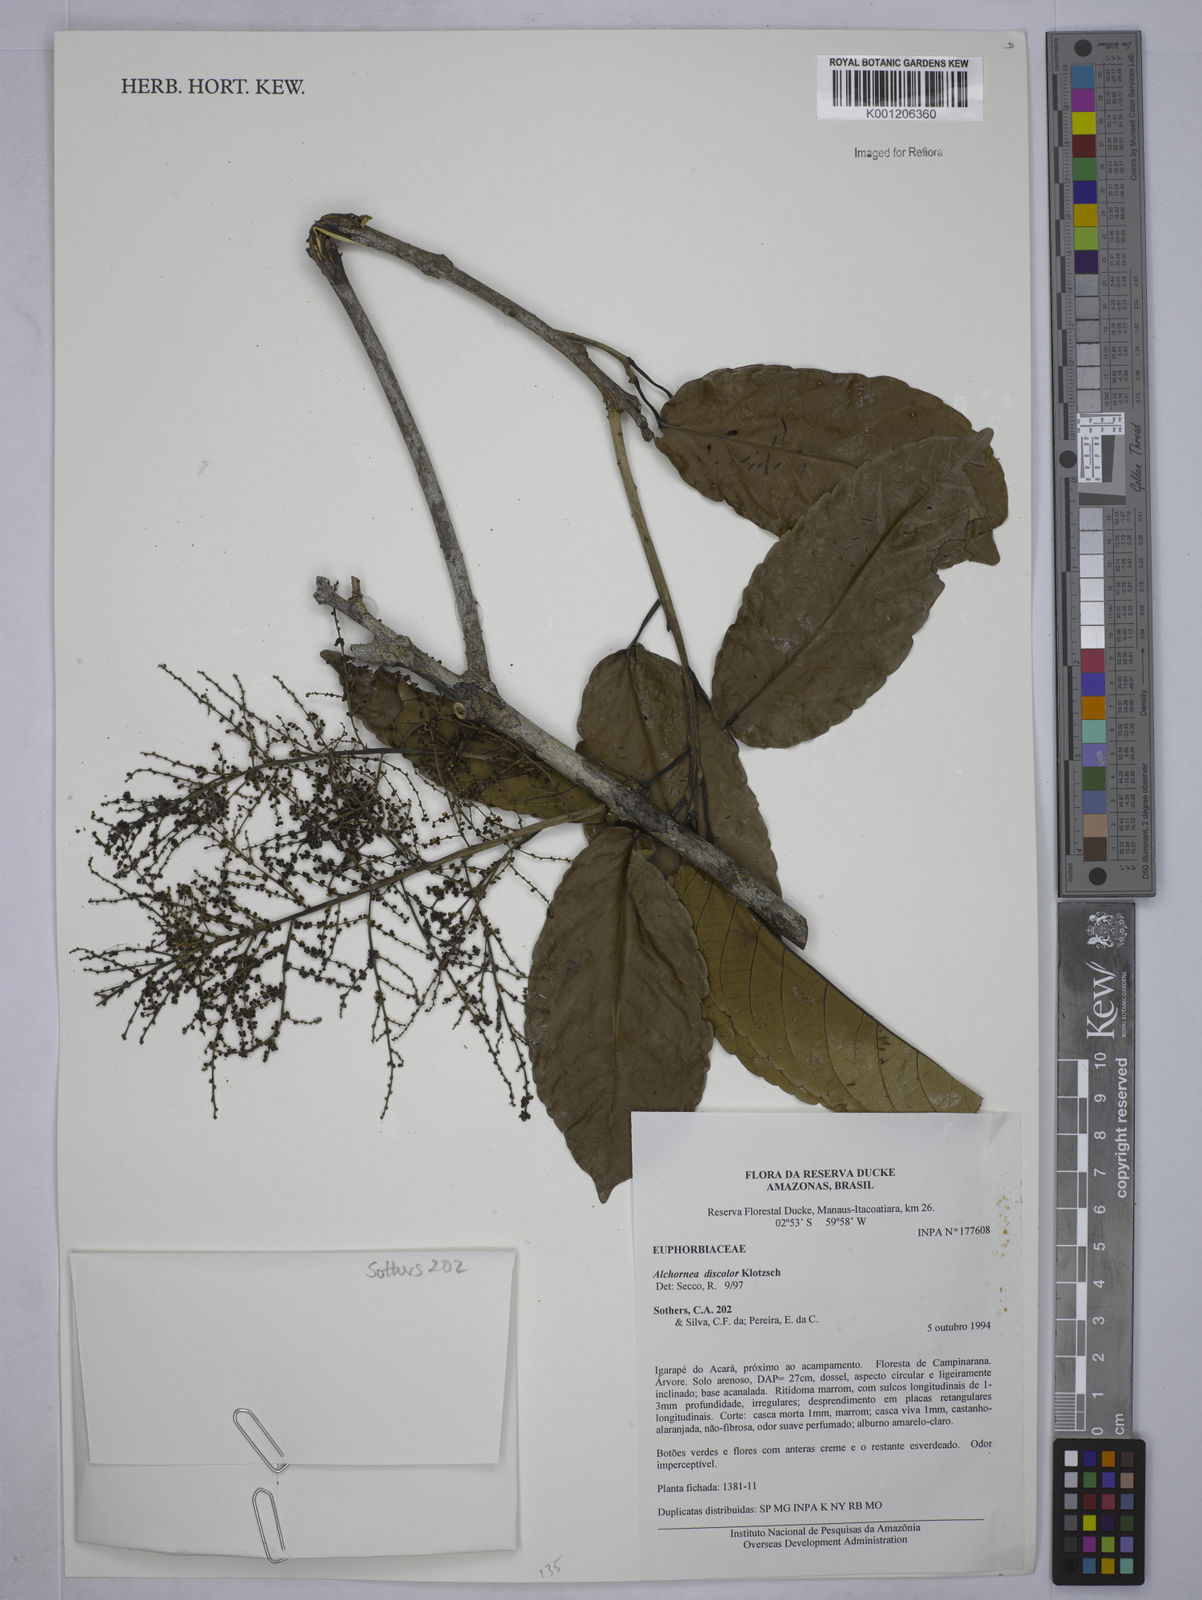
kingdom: Plantae
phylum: Tracheophyta
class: Magnoliopsida
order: Malpighiales
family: Euphorbiaceae
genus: Alchornea
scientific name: Alchornea discolor
